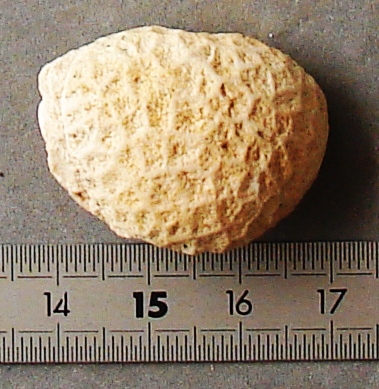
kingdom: Animalia
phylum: Cnidaria
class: Anthozoa
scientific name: Anthozoa
